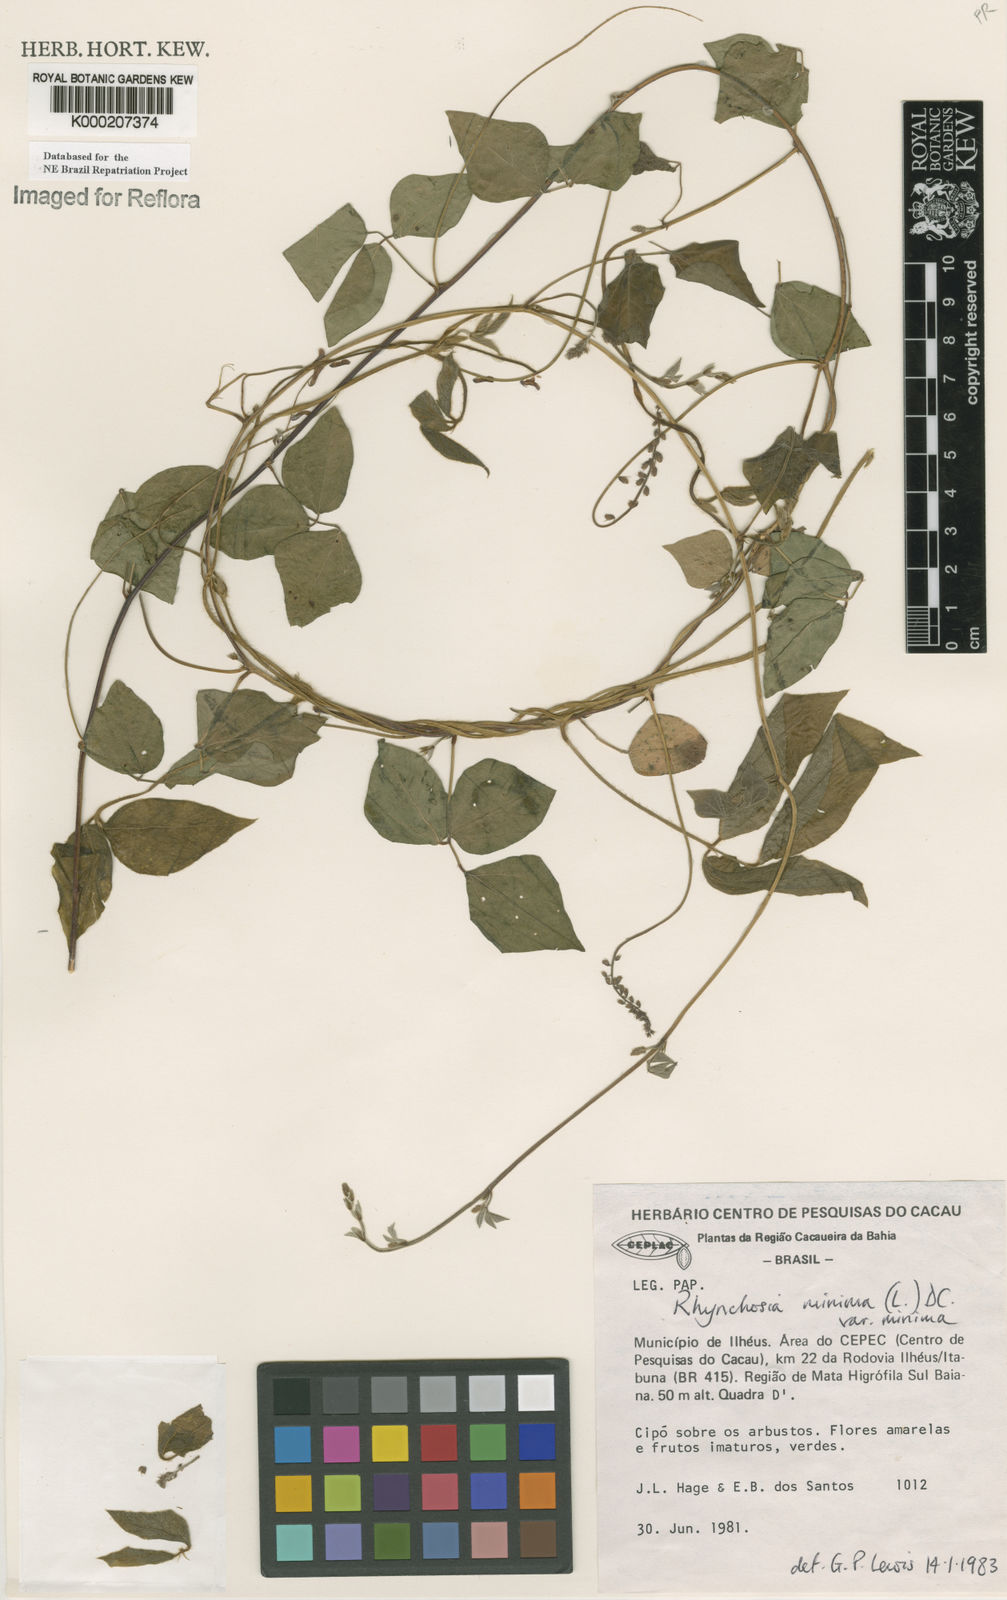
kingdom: Plantae
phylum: Tracheophyta
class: Magnoliopsida
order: Fabales
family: Fabaceae
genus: Rhynchosia
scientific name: Rhynchosia minima
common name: Least snoutbean
